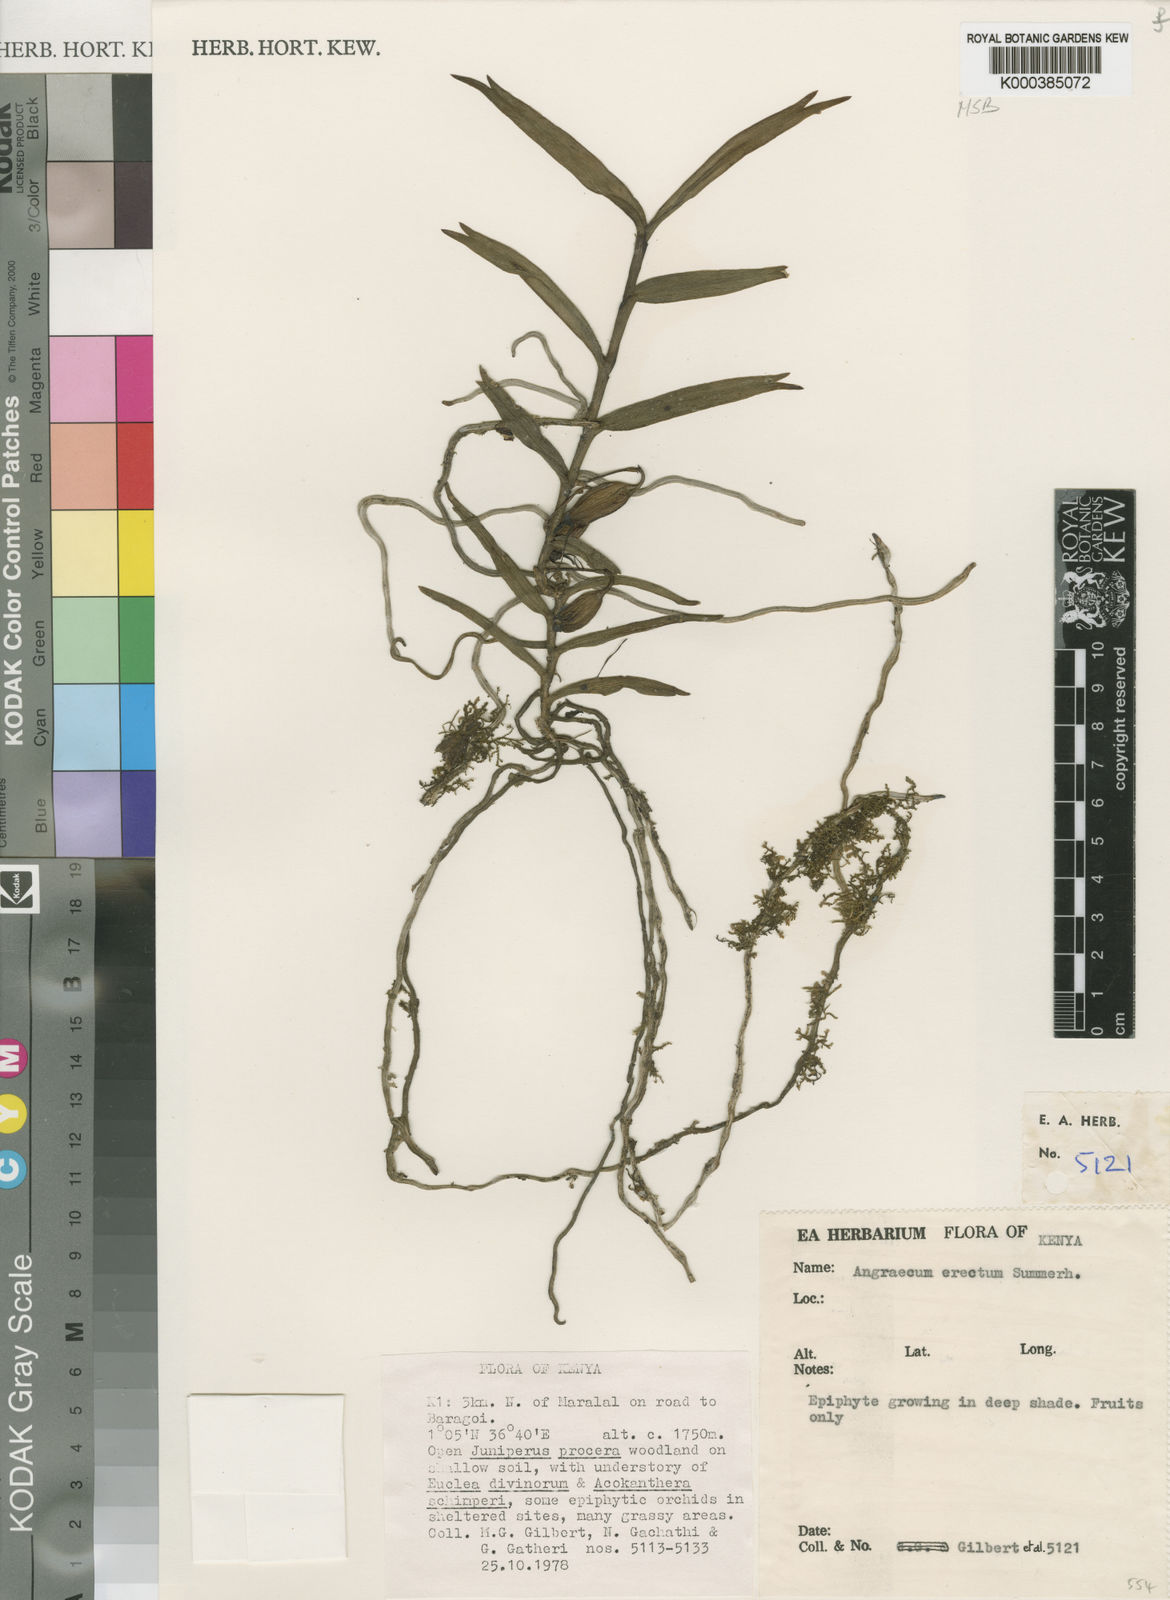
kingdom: Plantae
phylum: Tracheophyta
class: Liliopsida
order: Asparagales
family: Orchidaceae
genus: Angraecum
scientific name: Angraecum erectum
